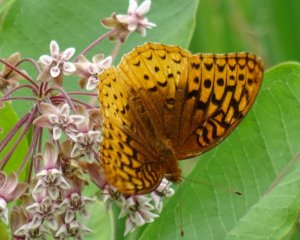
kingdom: Animalia
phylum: Arthropoda
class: Insecta
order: Lepidoptera
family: Nymphalidae
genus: Speyeria
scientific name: Speyeria cybele
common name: Great Spangled Fritillary
